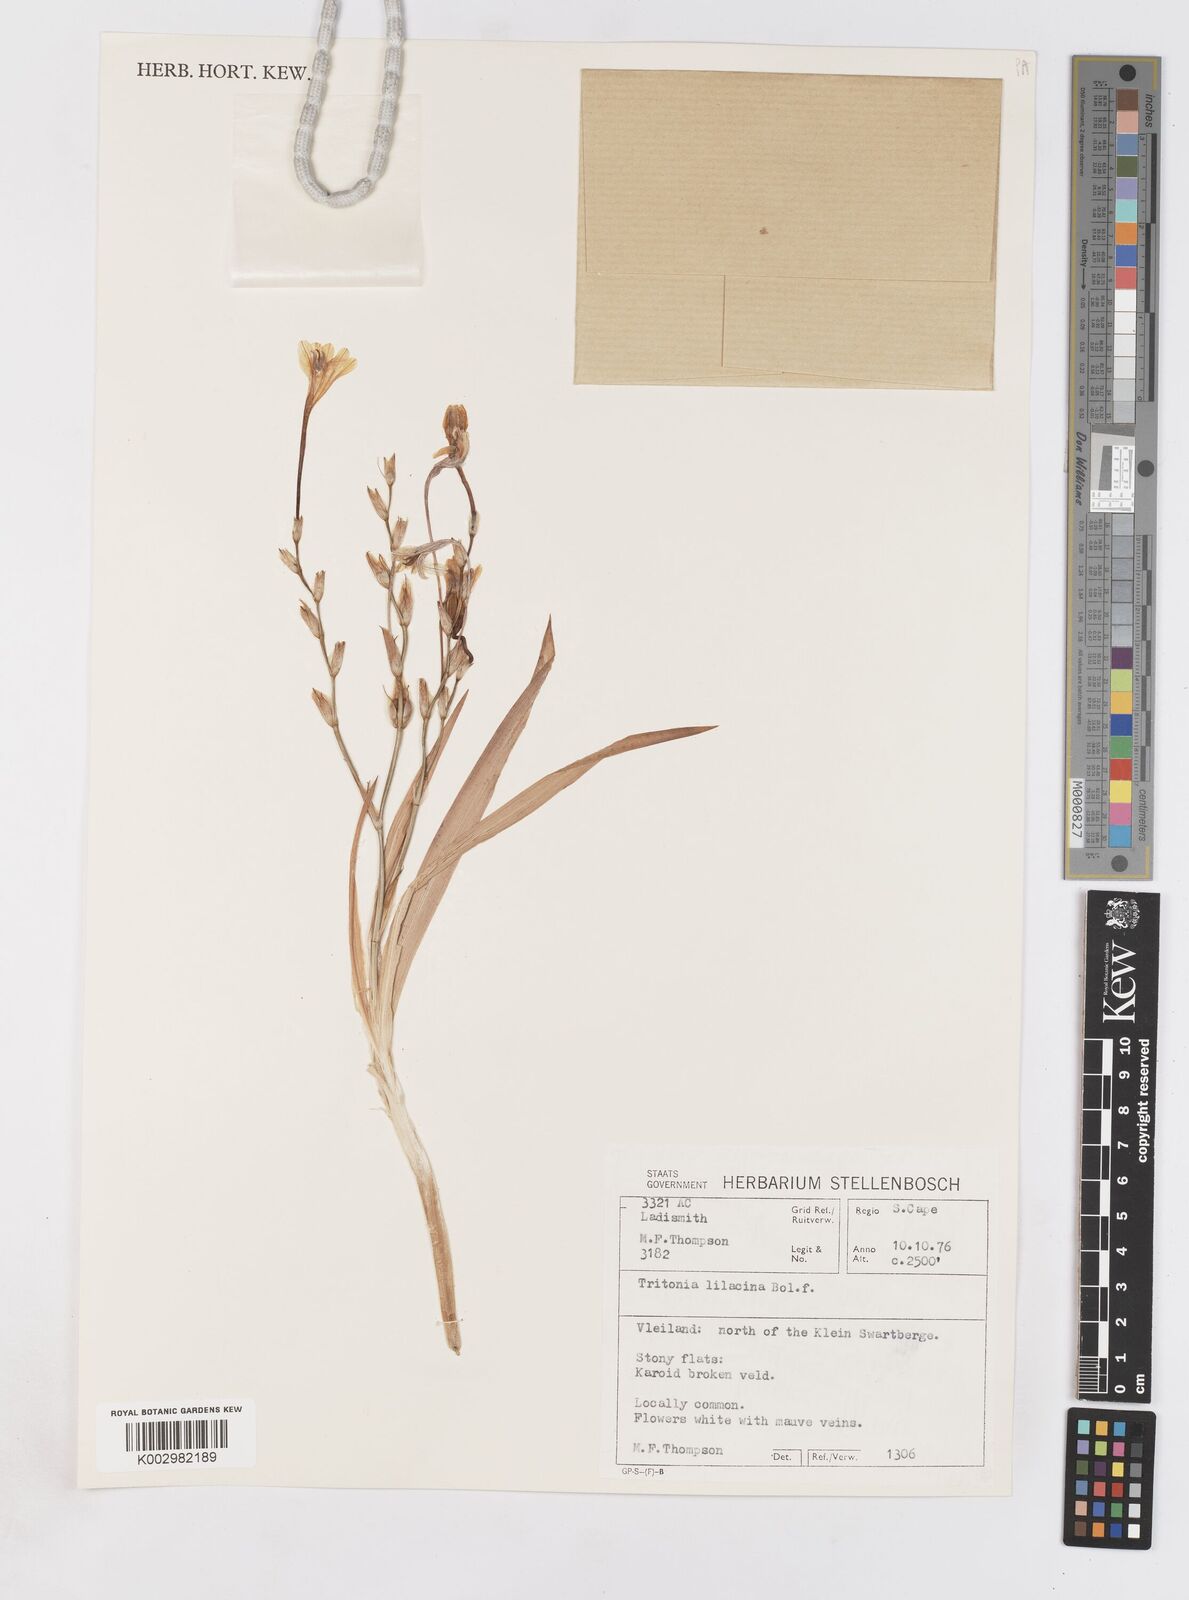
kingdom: Plantae
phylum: Tracheophyta
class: Liliopsida
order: Asparagales
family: Iridaceae
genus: Tritonia
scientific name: Tritonia bakeri
